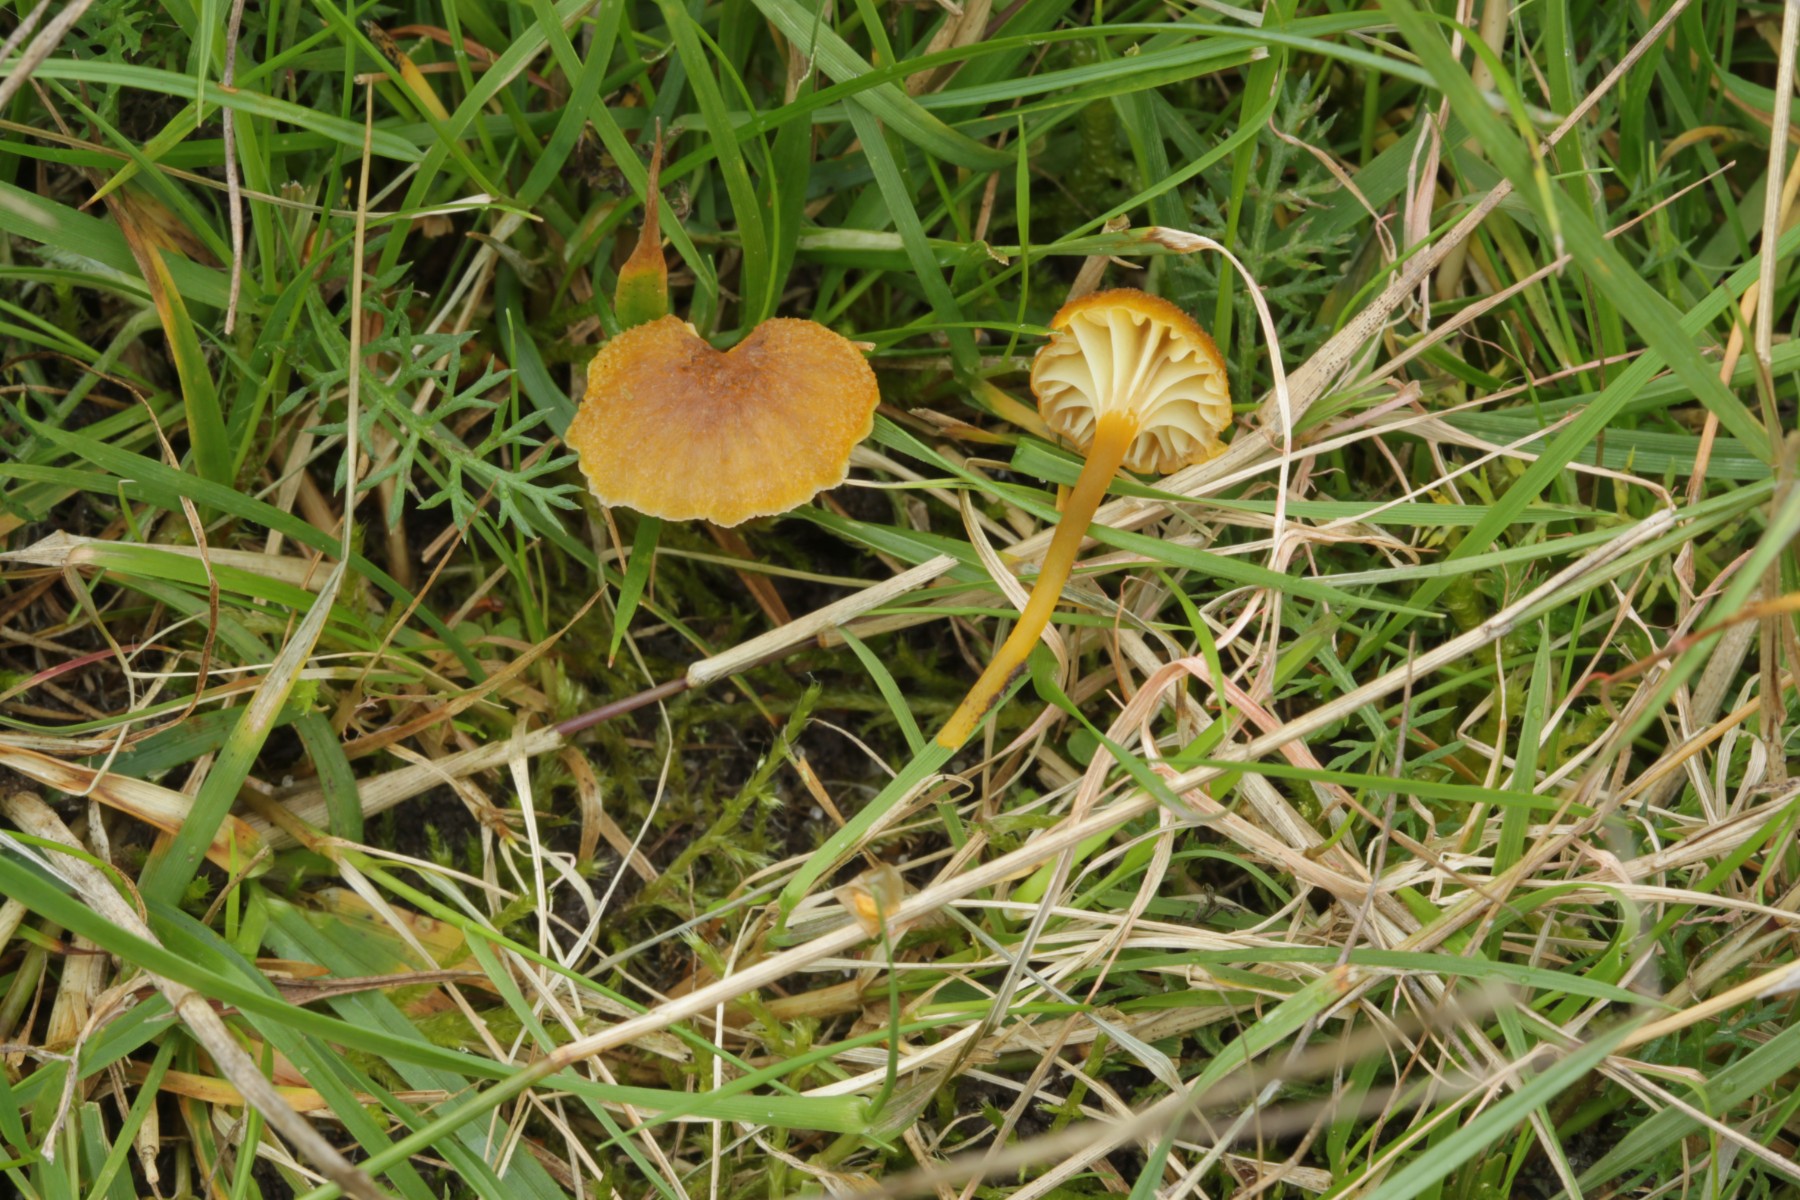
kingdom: Fungi
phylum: Basidiomycota
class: Agaricomycetes
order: Agaricales
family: Hygrophoraceae
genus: Hygrocybe
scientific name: Hygrocybe cantharellus
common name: kantarel-vokshat
